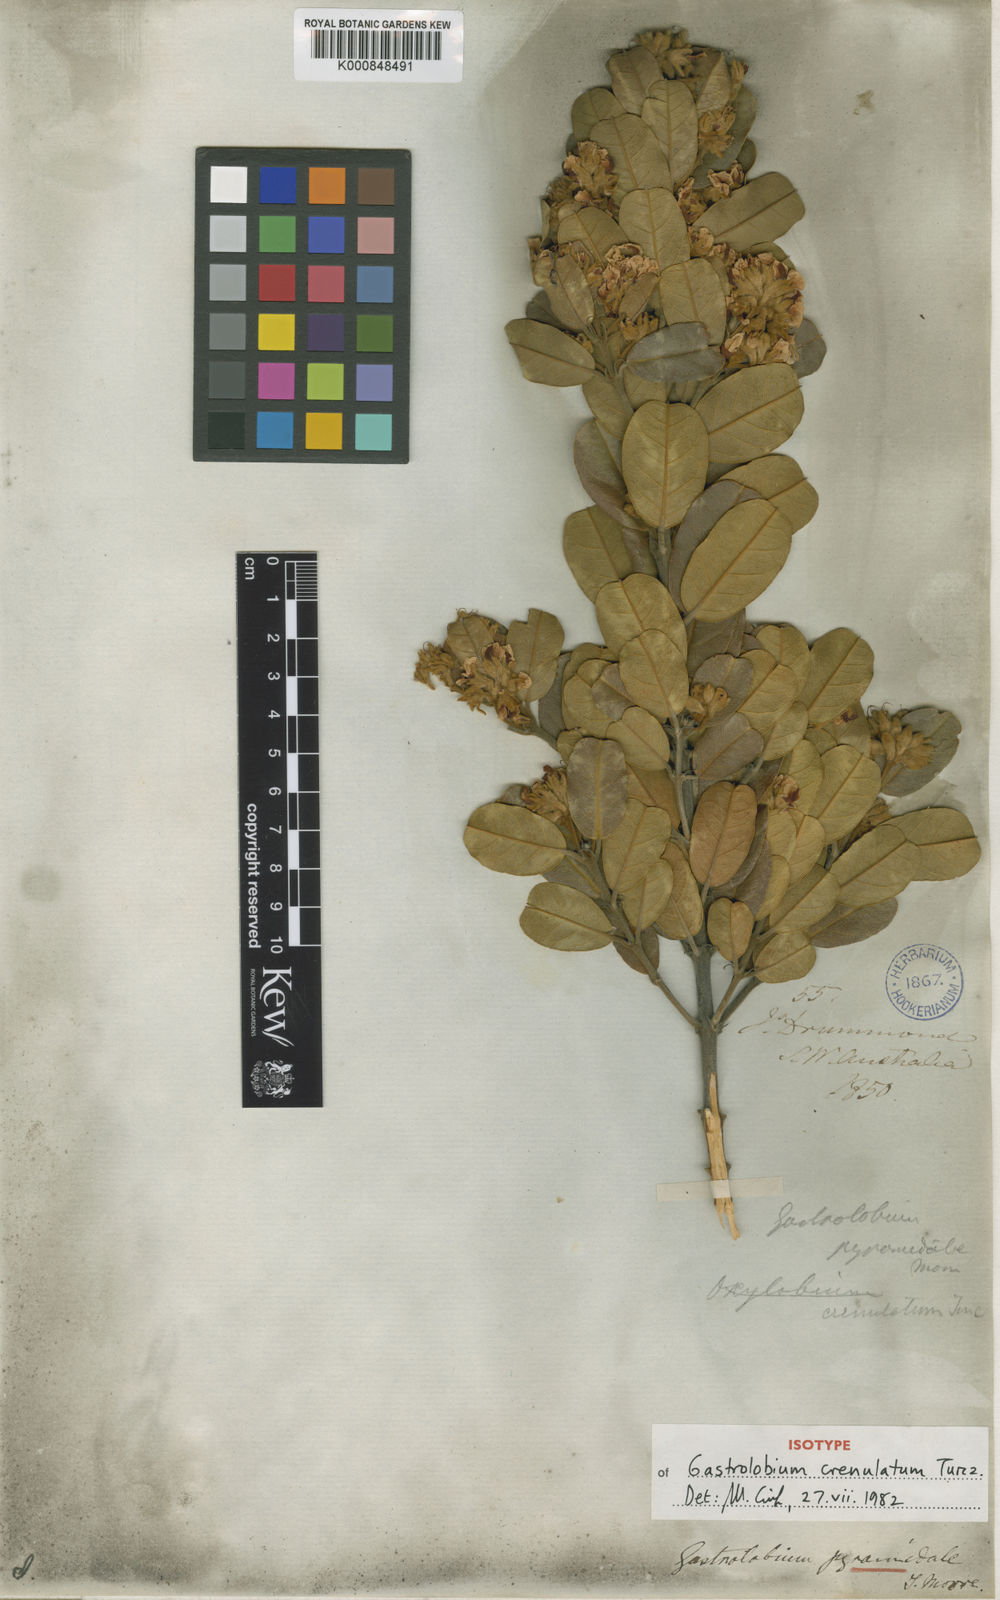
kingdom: Plantae
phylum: Tracheophyta
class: Magnoliopsida
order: Fabales
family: Fabaceae
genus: Gastrolobium
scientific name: Gastrolobium pyramidale
